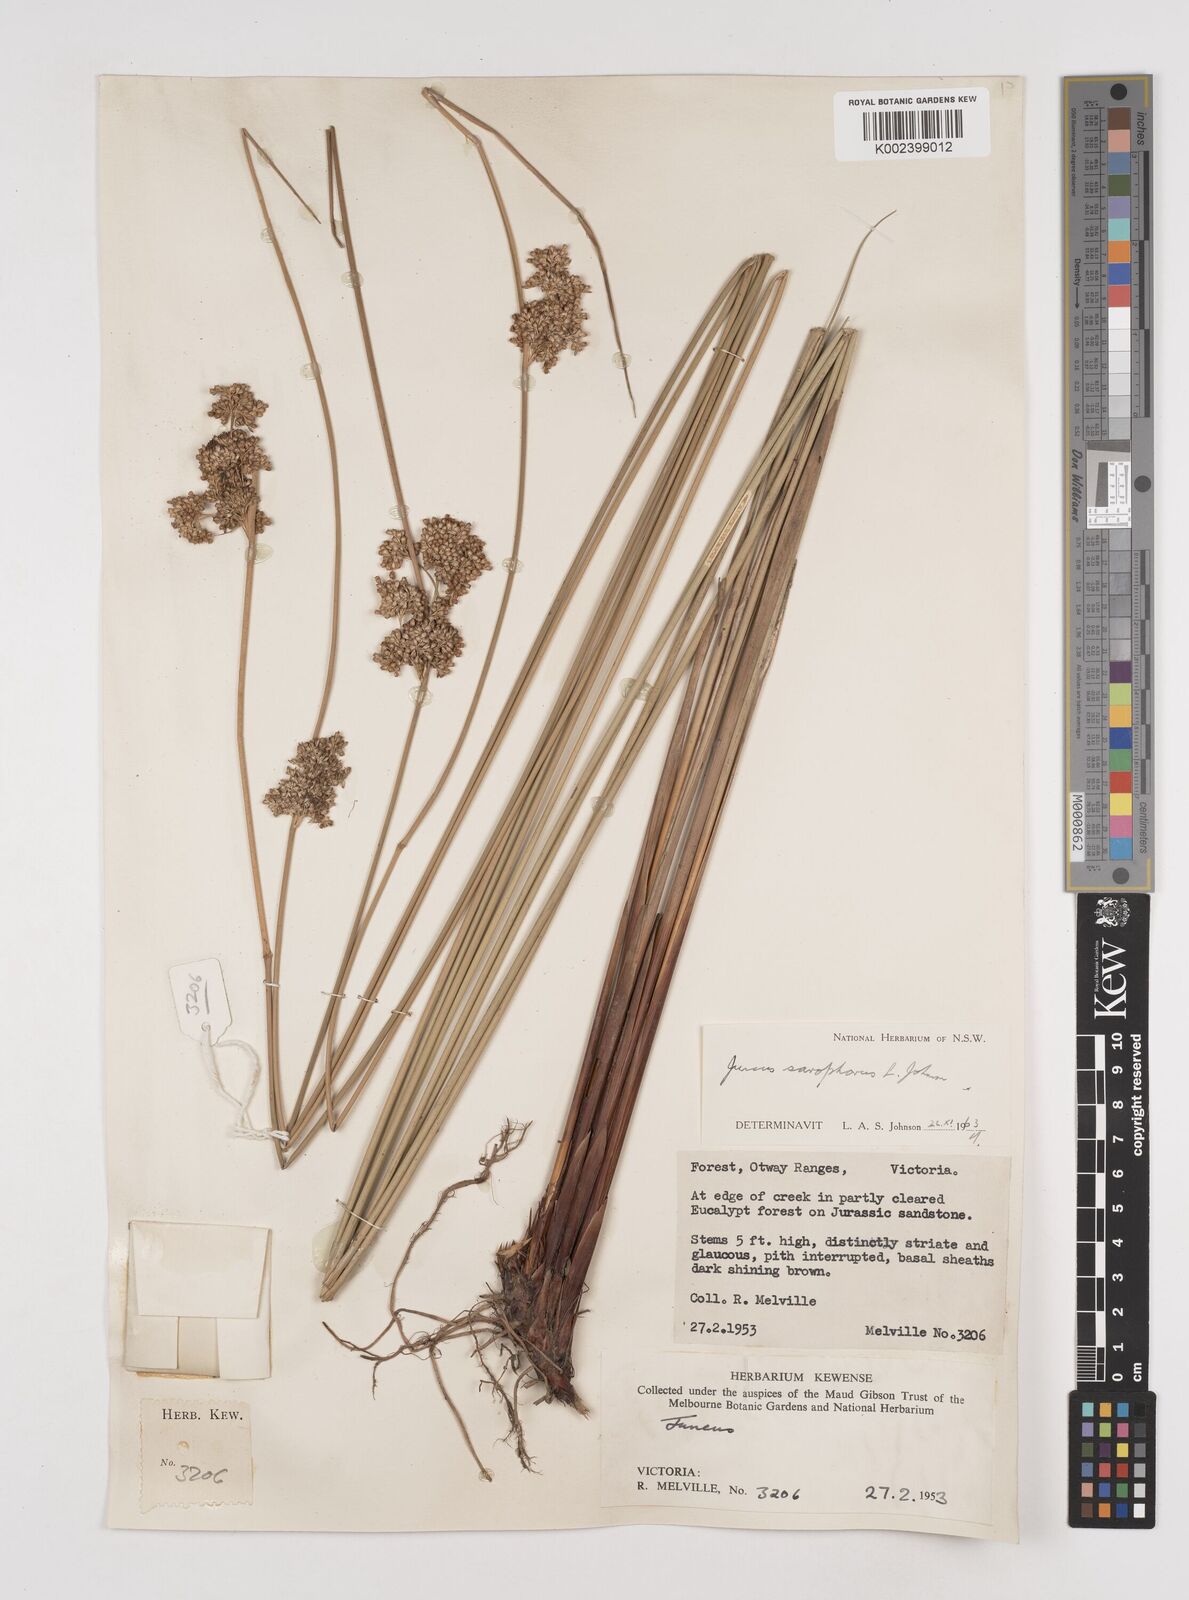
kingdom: Plantae
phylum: Tracheophyta
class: Liliopsida
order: Poales
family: Juncaceae
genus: Juncus
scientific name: Juncus sarophorus
